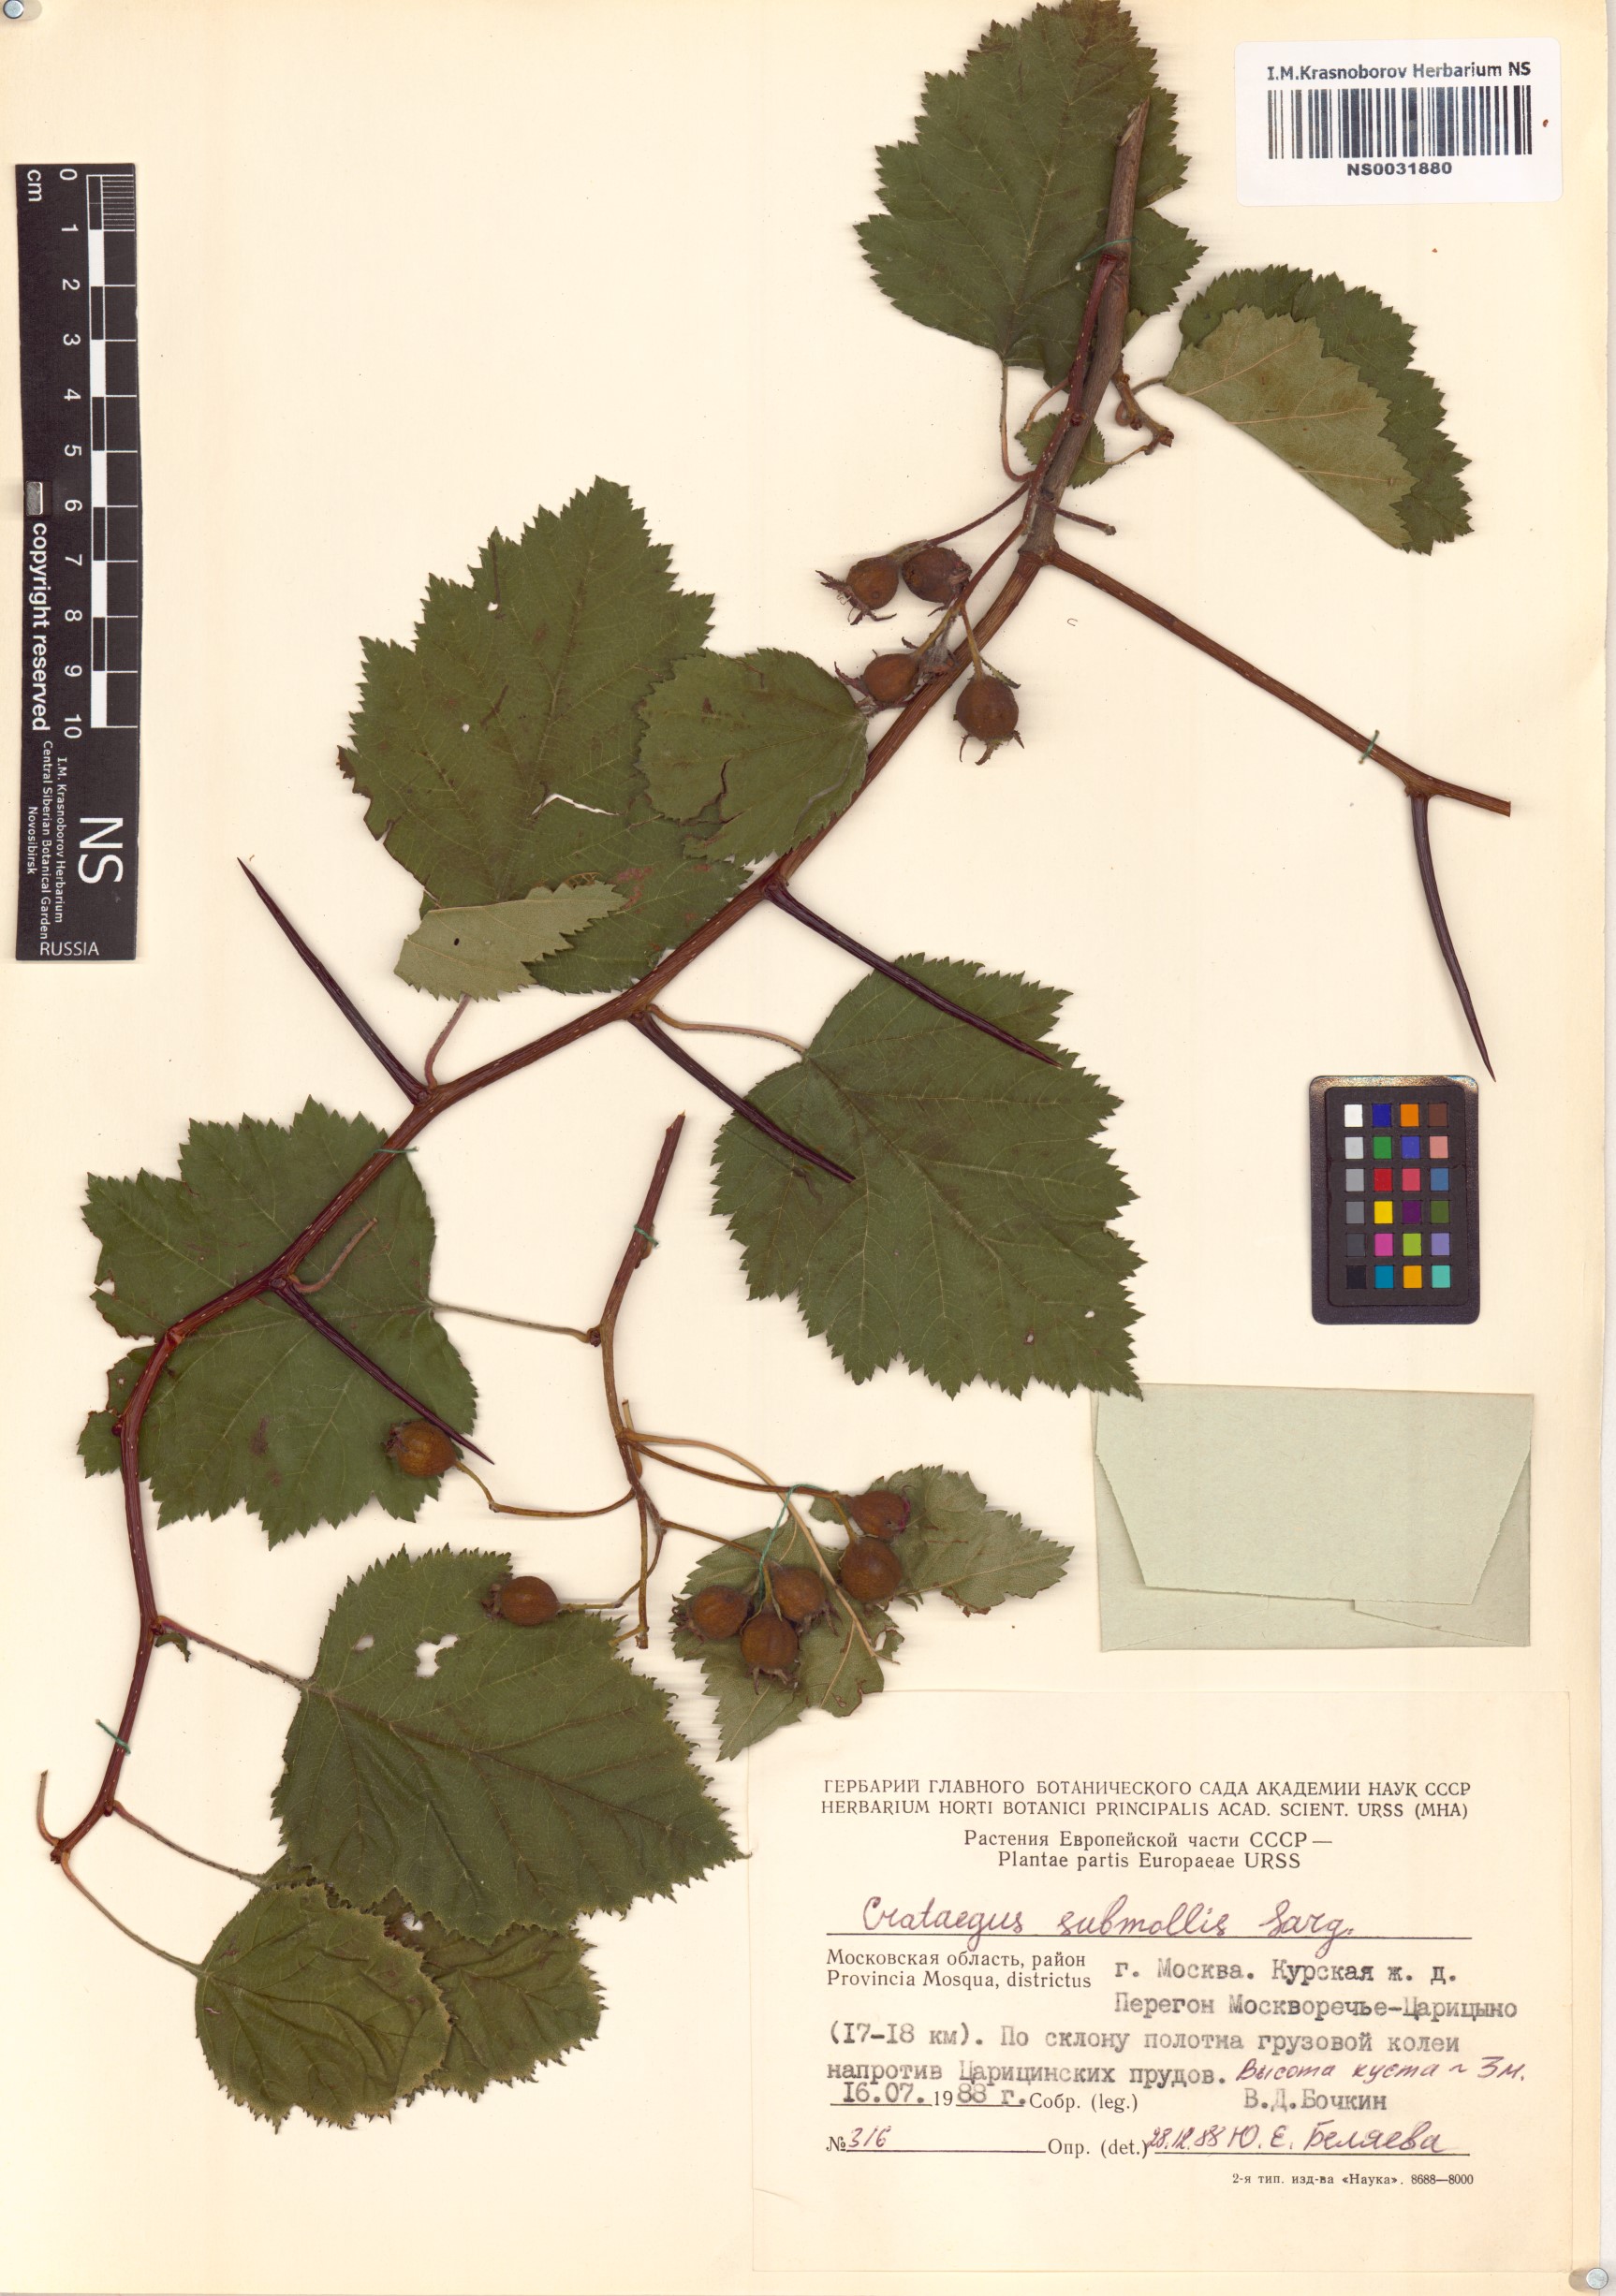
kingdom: Plantae
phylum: Tracheophyta
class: Magnoliopsida
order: Rosales
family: Rosaceae
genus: Crataegus
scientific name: Crataegus submollis
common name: Hairy cockspurthorn
